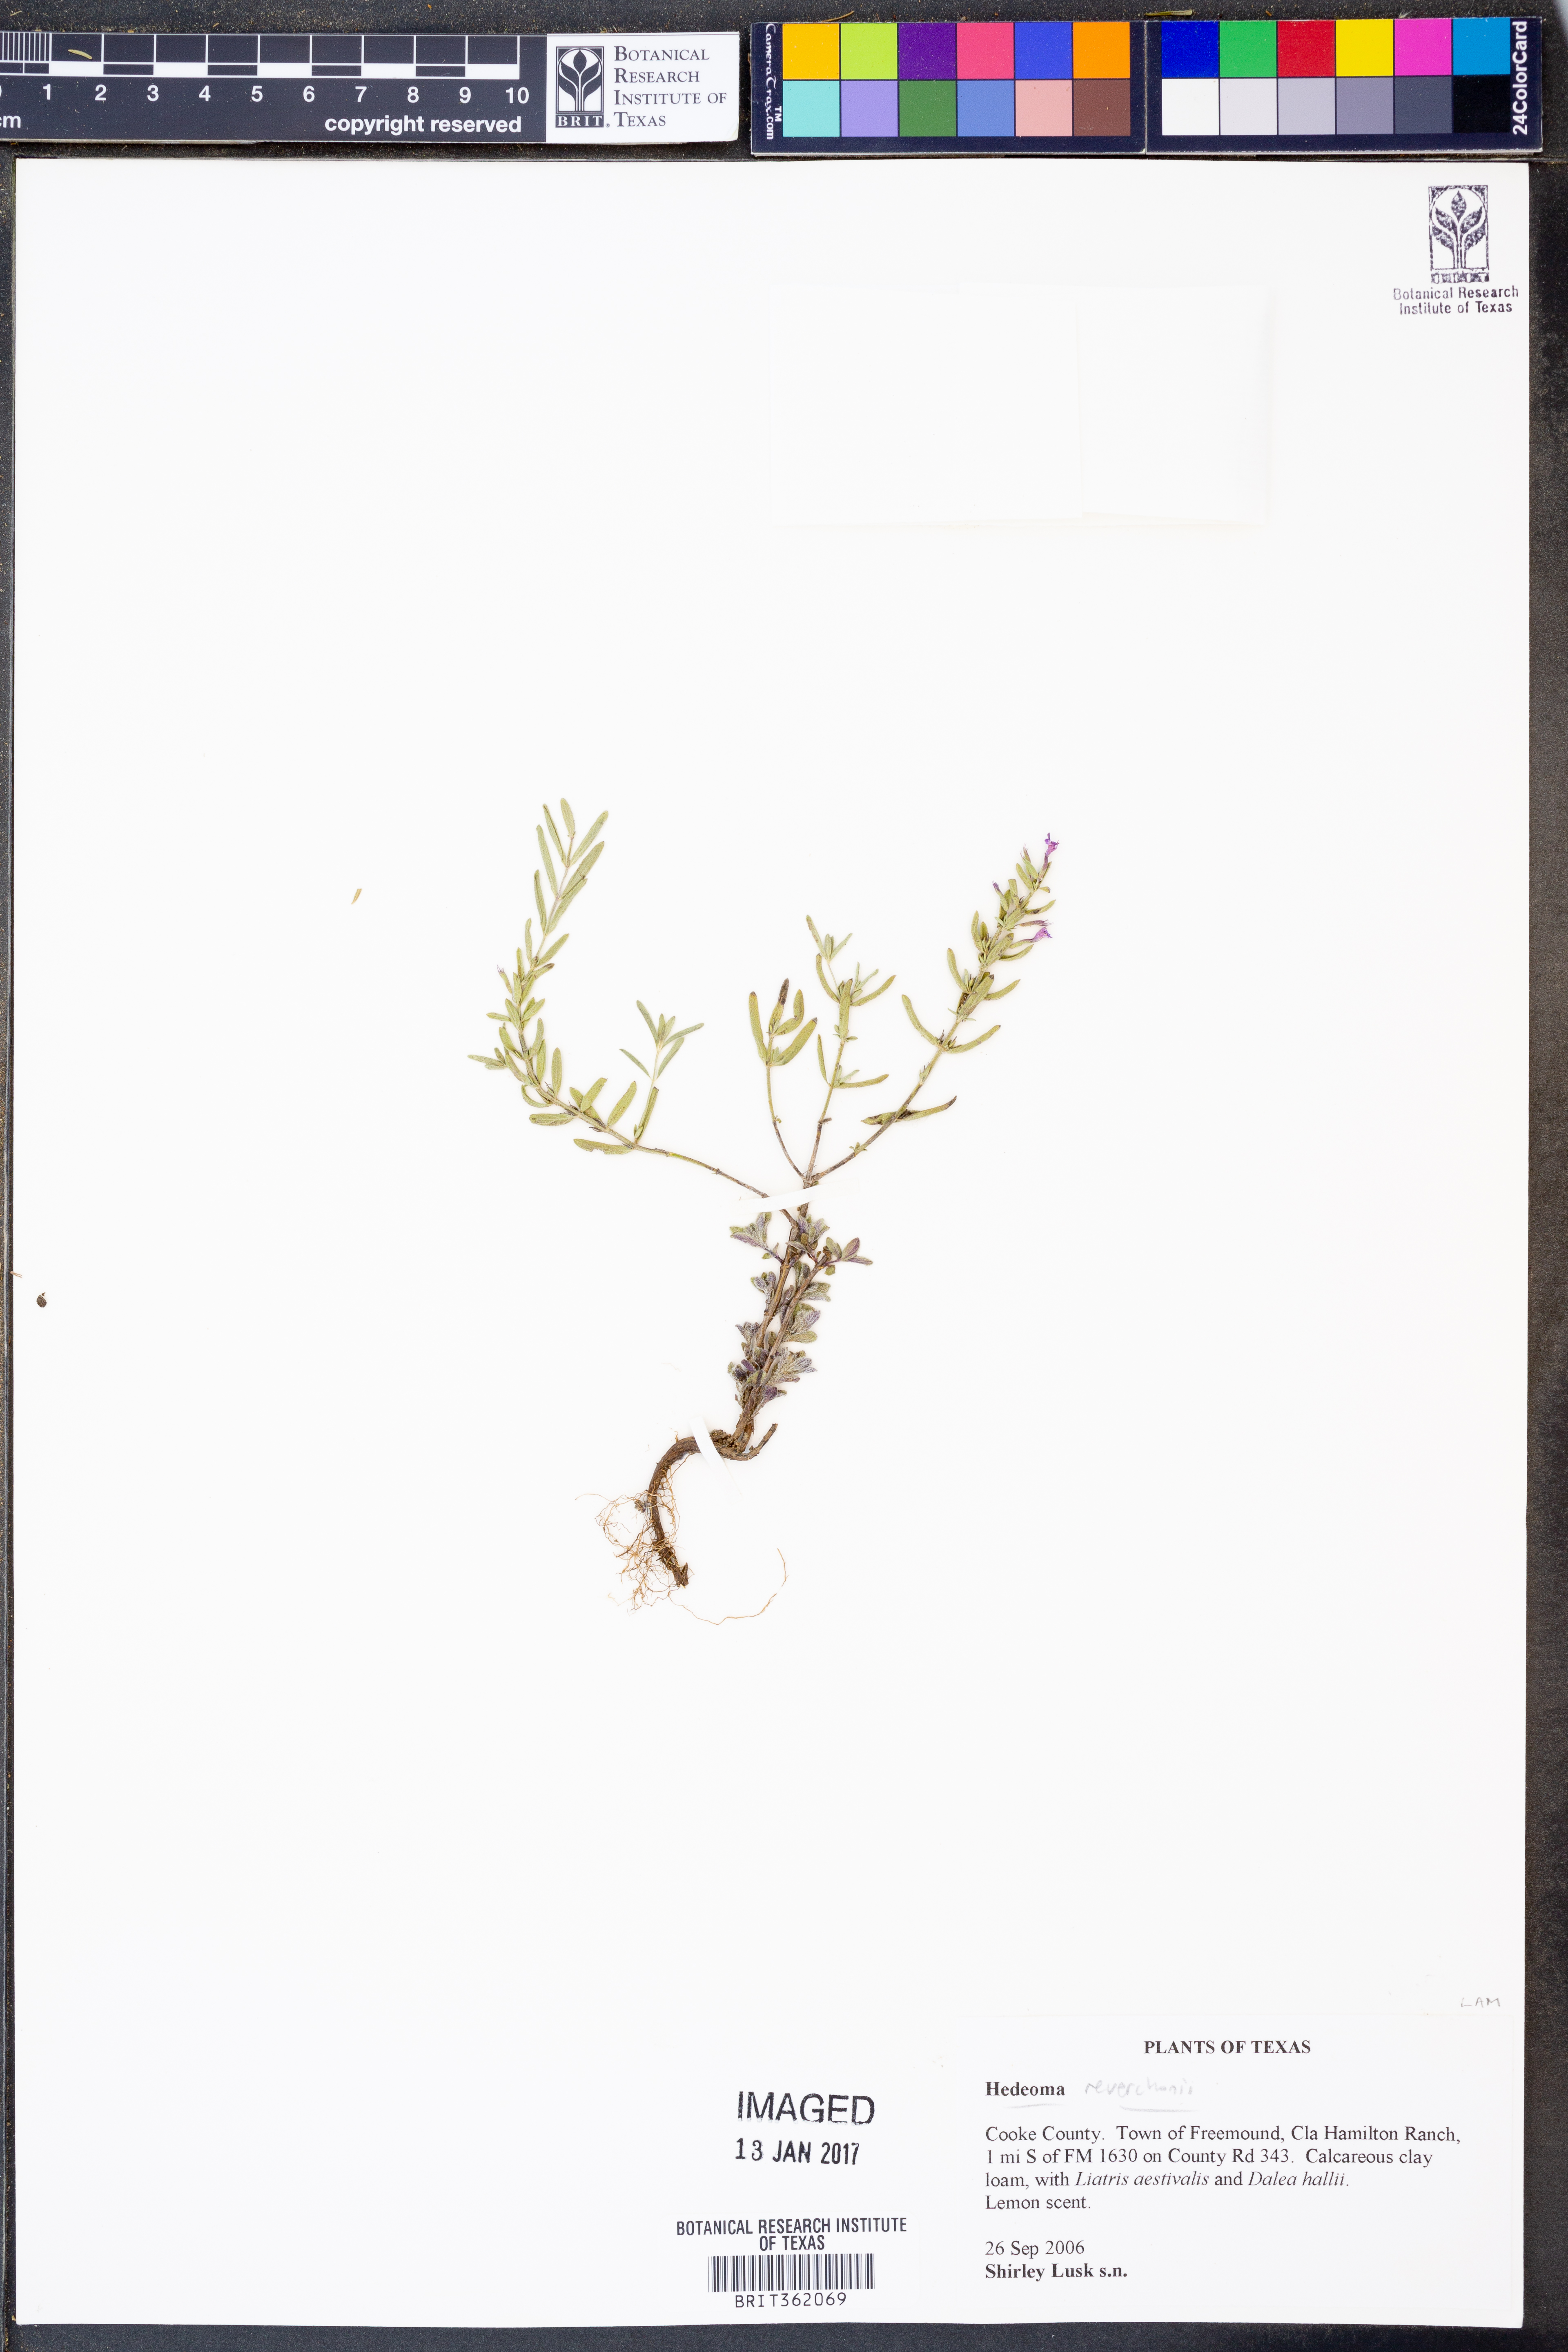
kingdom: Plantae
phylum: Tracheophyta
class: Magnoliopsida
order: Lamiales
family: Lamiaceae
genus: Hedeoma
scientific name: Hedeoma reverchonii
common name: Reverchon's false penny-royal
